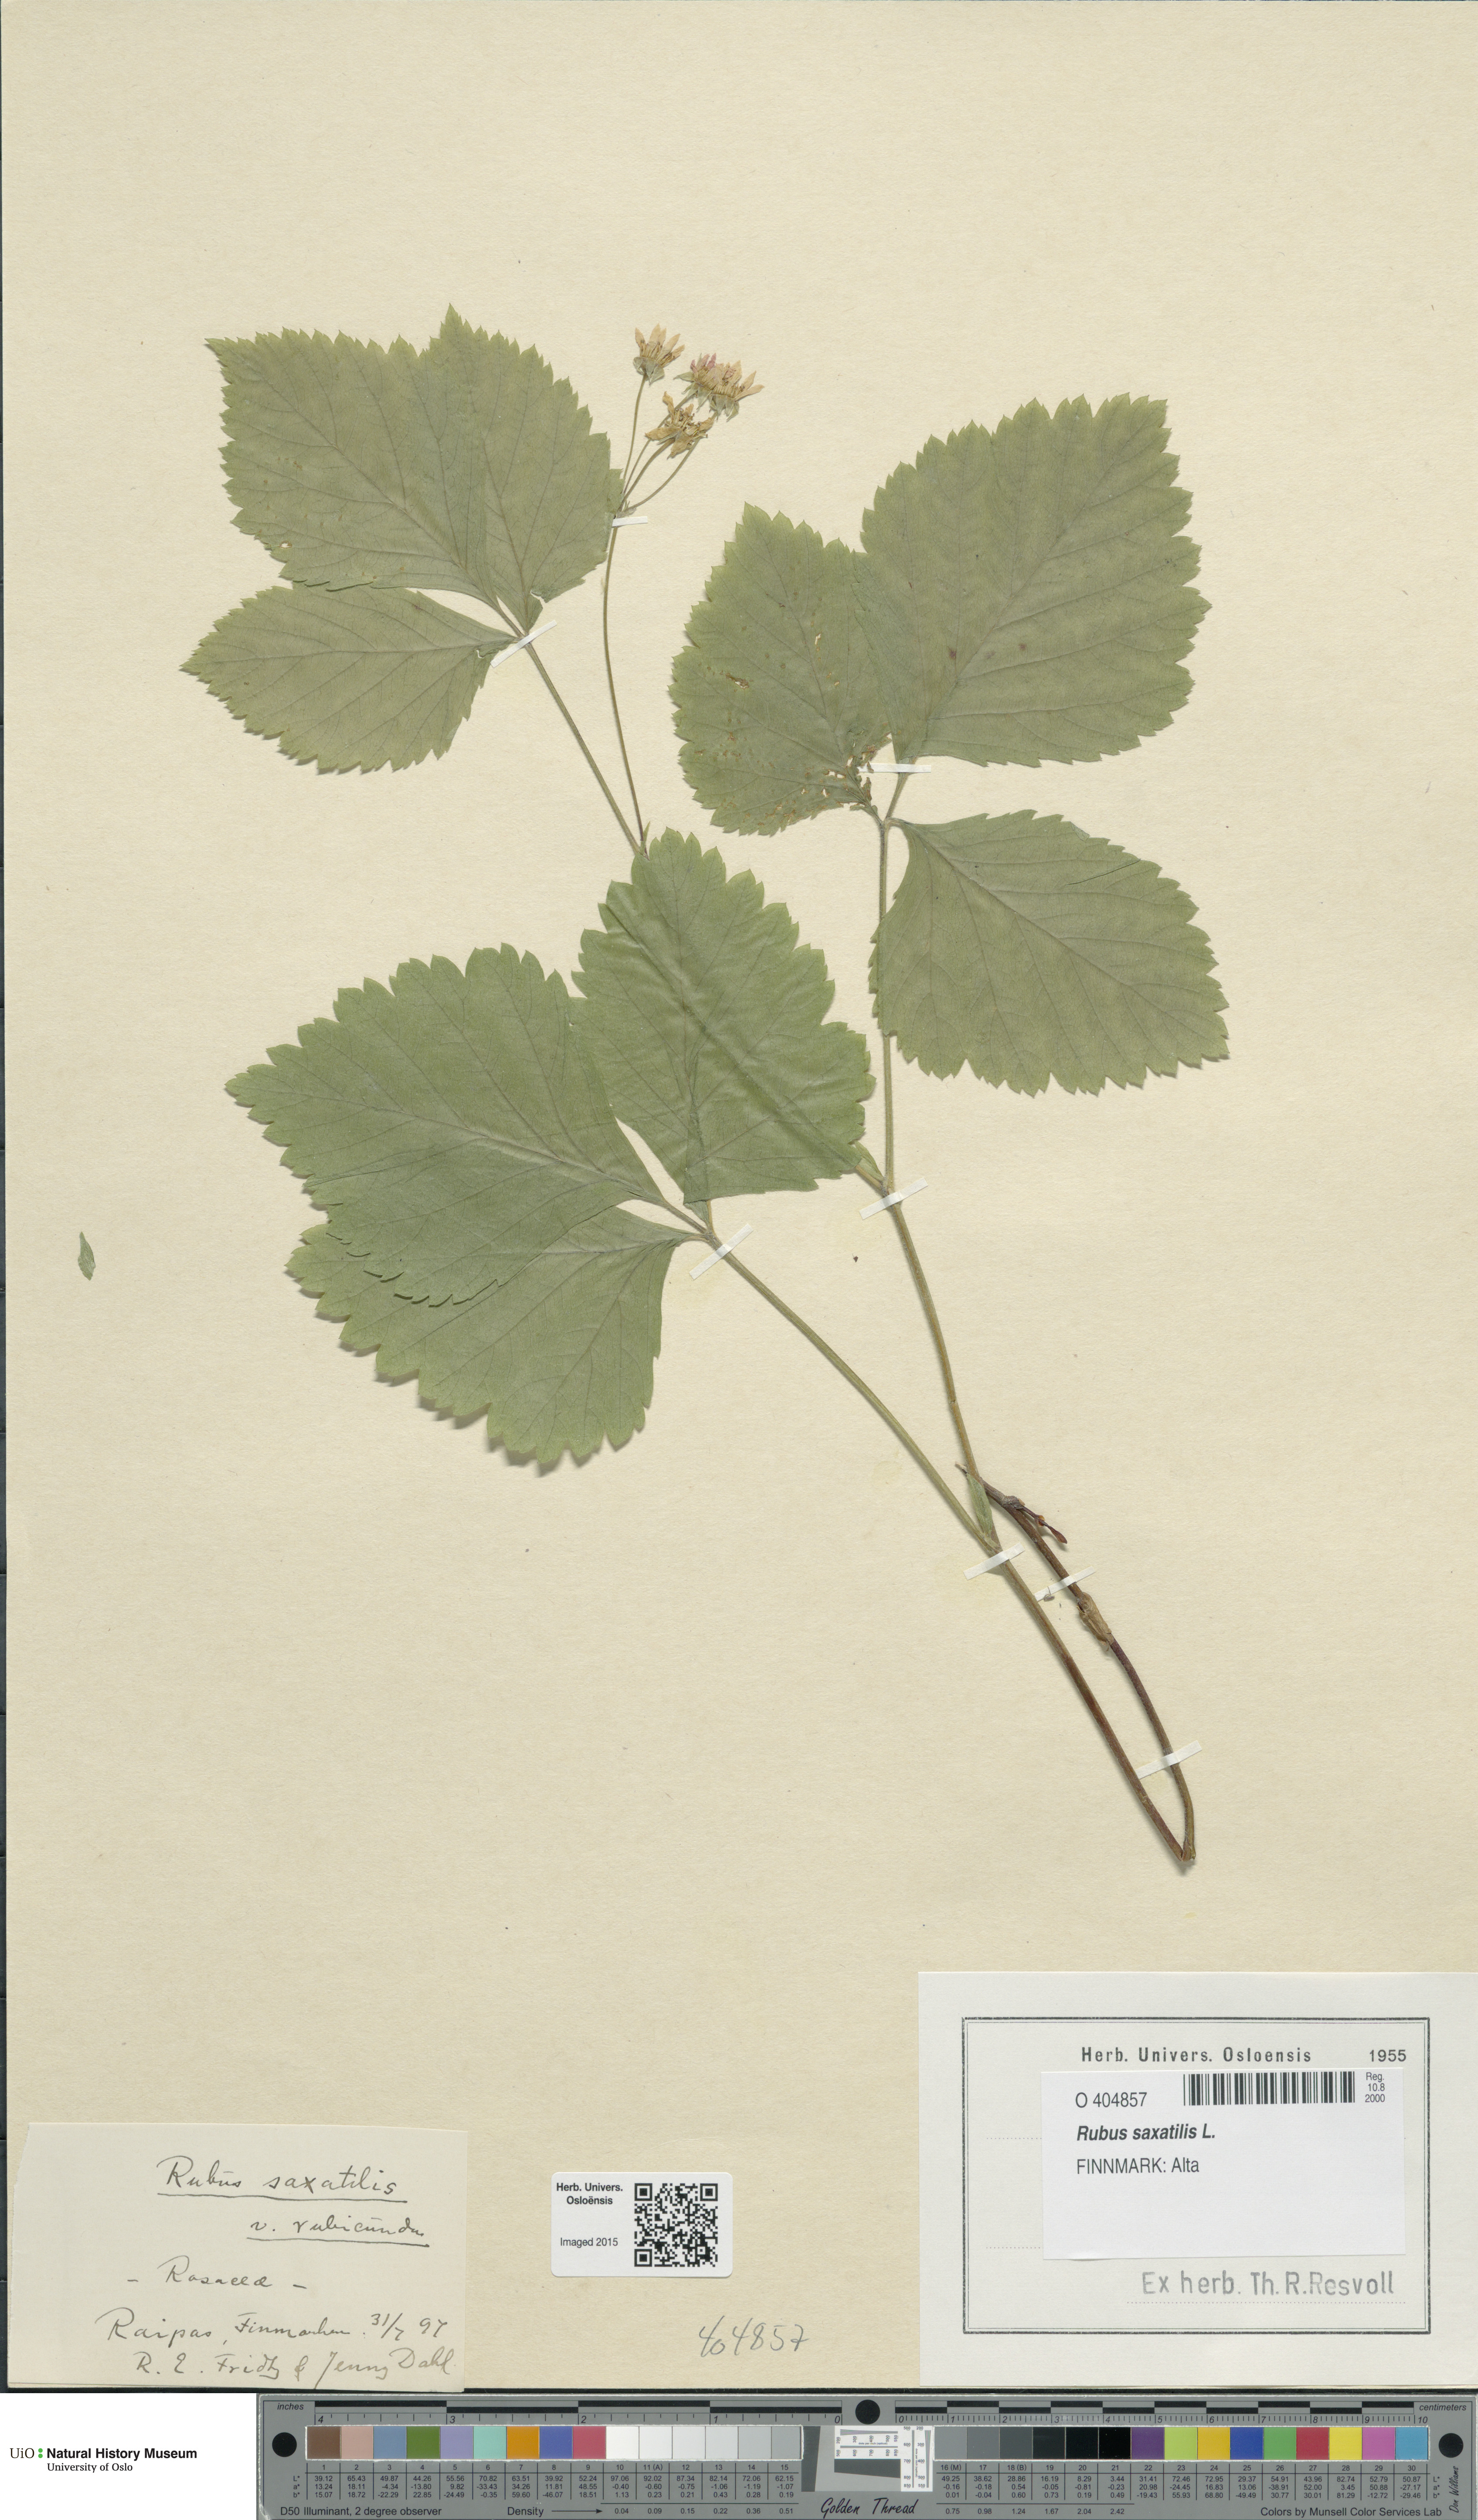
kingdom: Plantae
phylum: Tracheophyta
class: Magnoliopsida
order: Rosales
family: Rosaceae
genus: Rubus
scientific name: Rubus saxatilis
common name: Stone bramble
